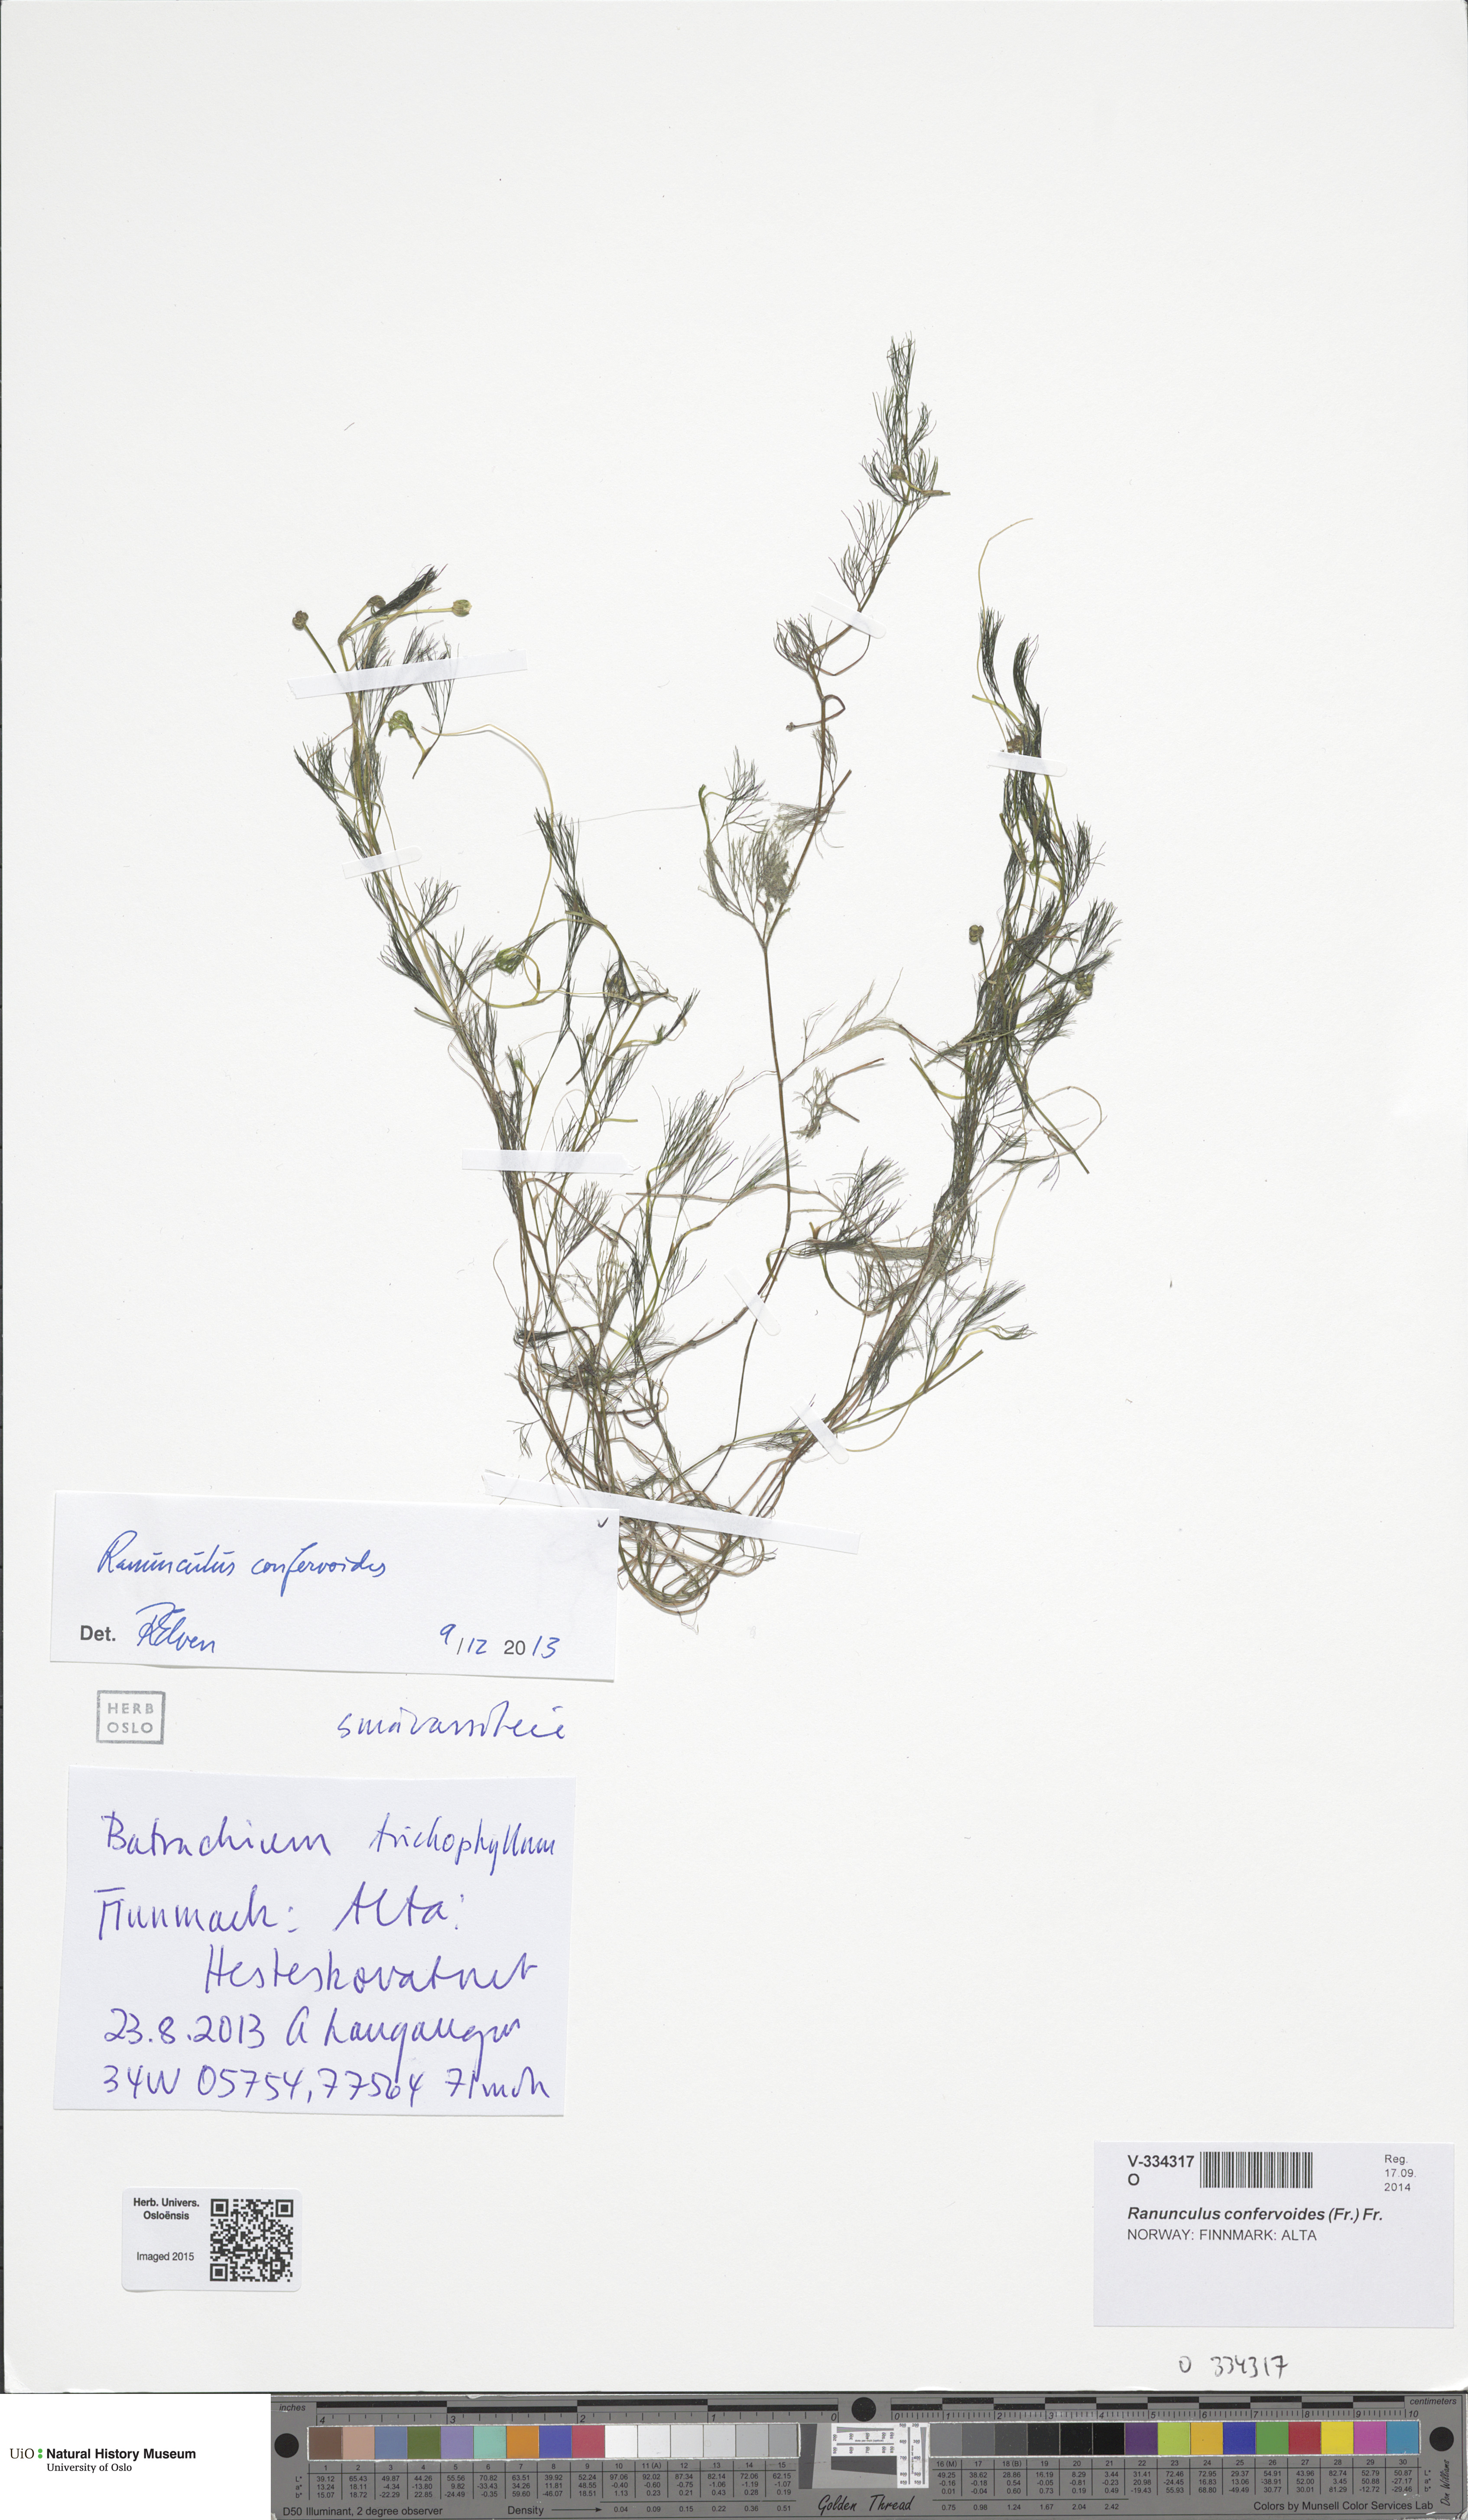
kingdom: Plantae
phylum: Tracheophyta
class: Magnoliopsida
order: Ranunculales
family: Ranunculaceae
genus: Ranunculus
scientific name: Ranunculus confervoides
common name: Delicate buttercup
